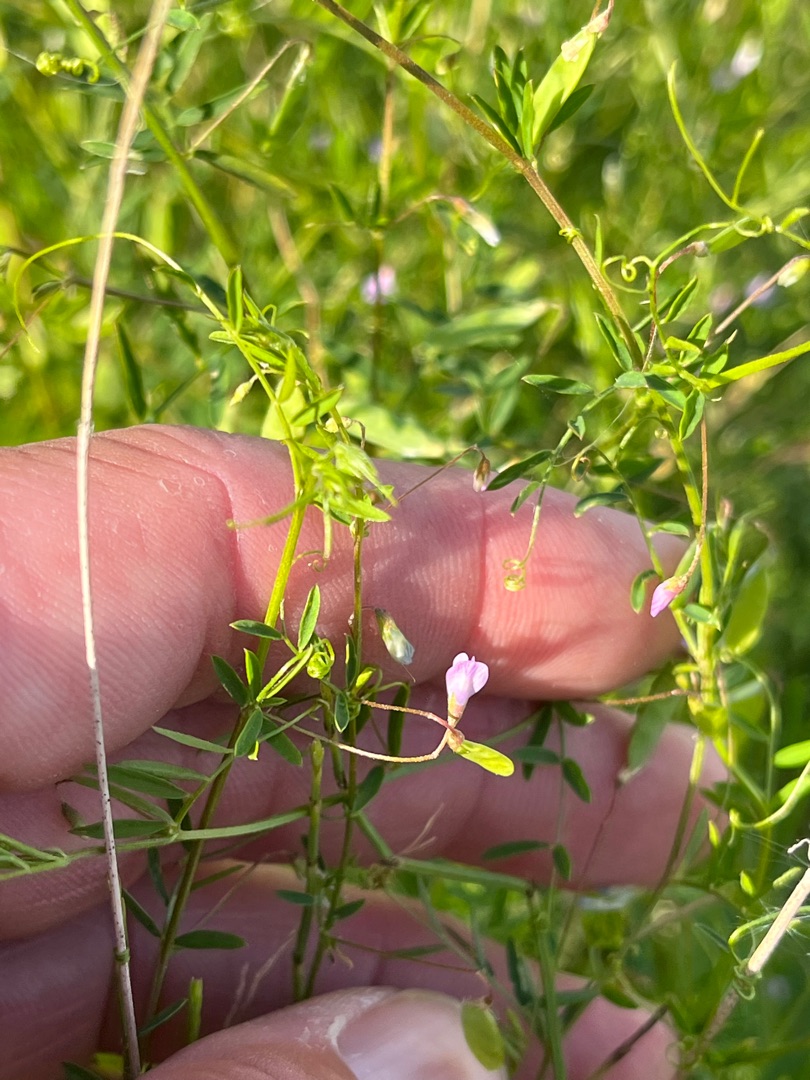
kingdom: Plantae
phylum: Tracheophyta
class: Magnoliopsida
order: Fabales
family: Fabaceae
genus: Vicia
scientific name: Vicia tetrasperma
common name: Tadder-vikke
